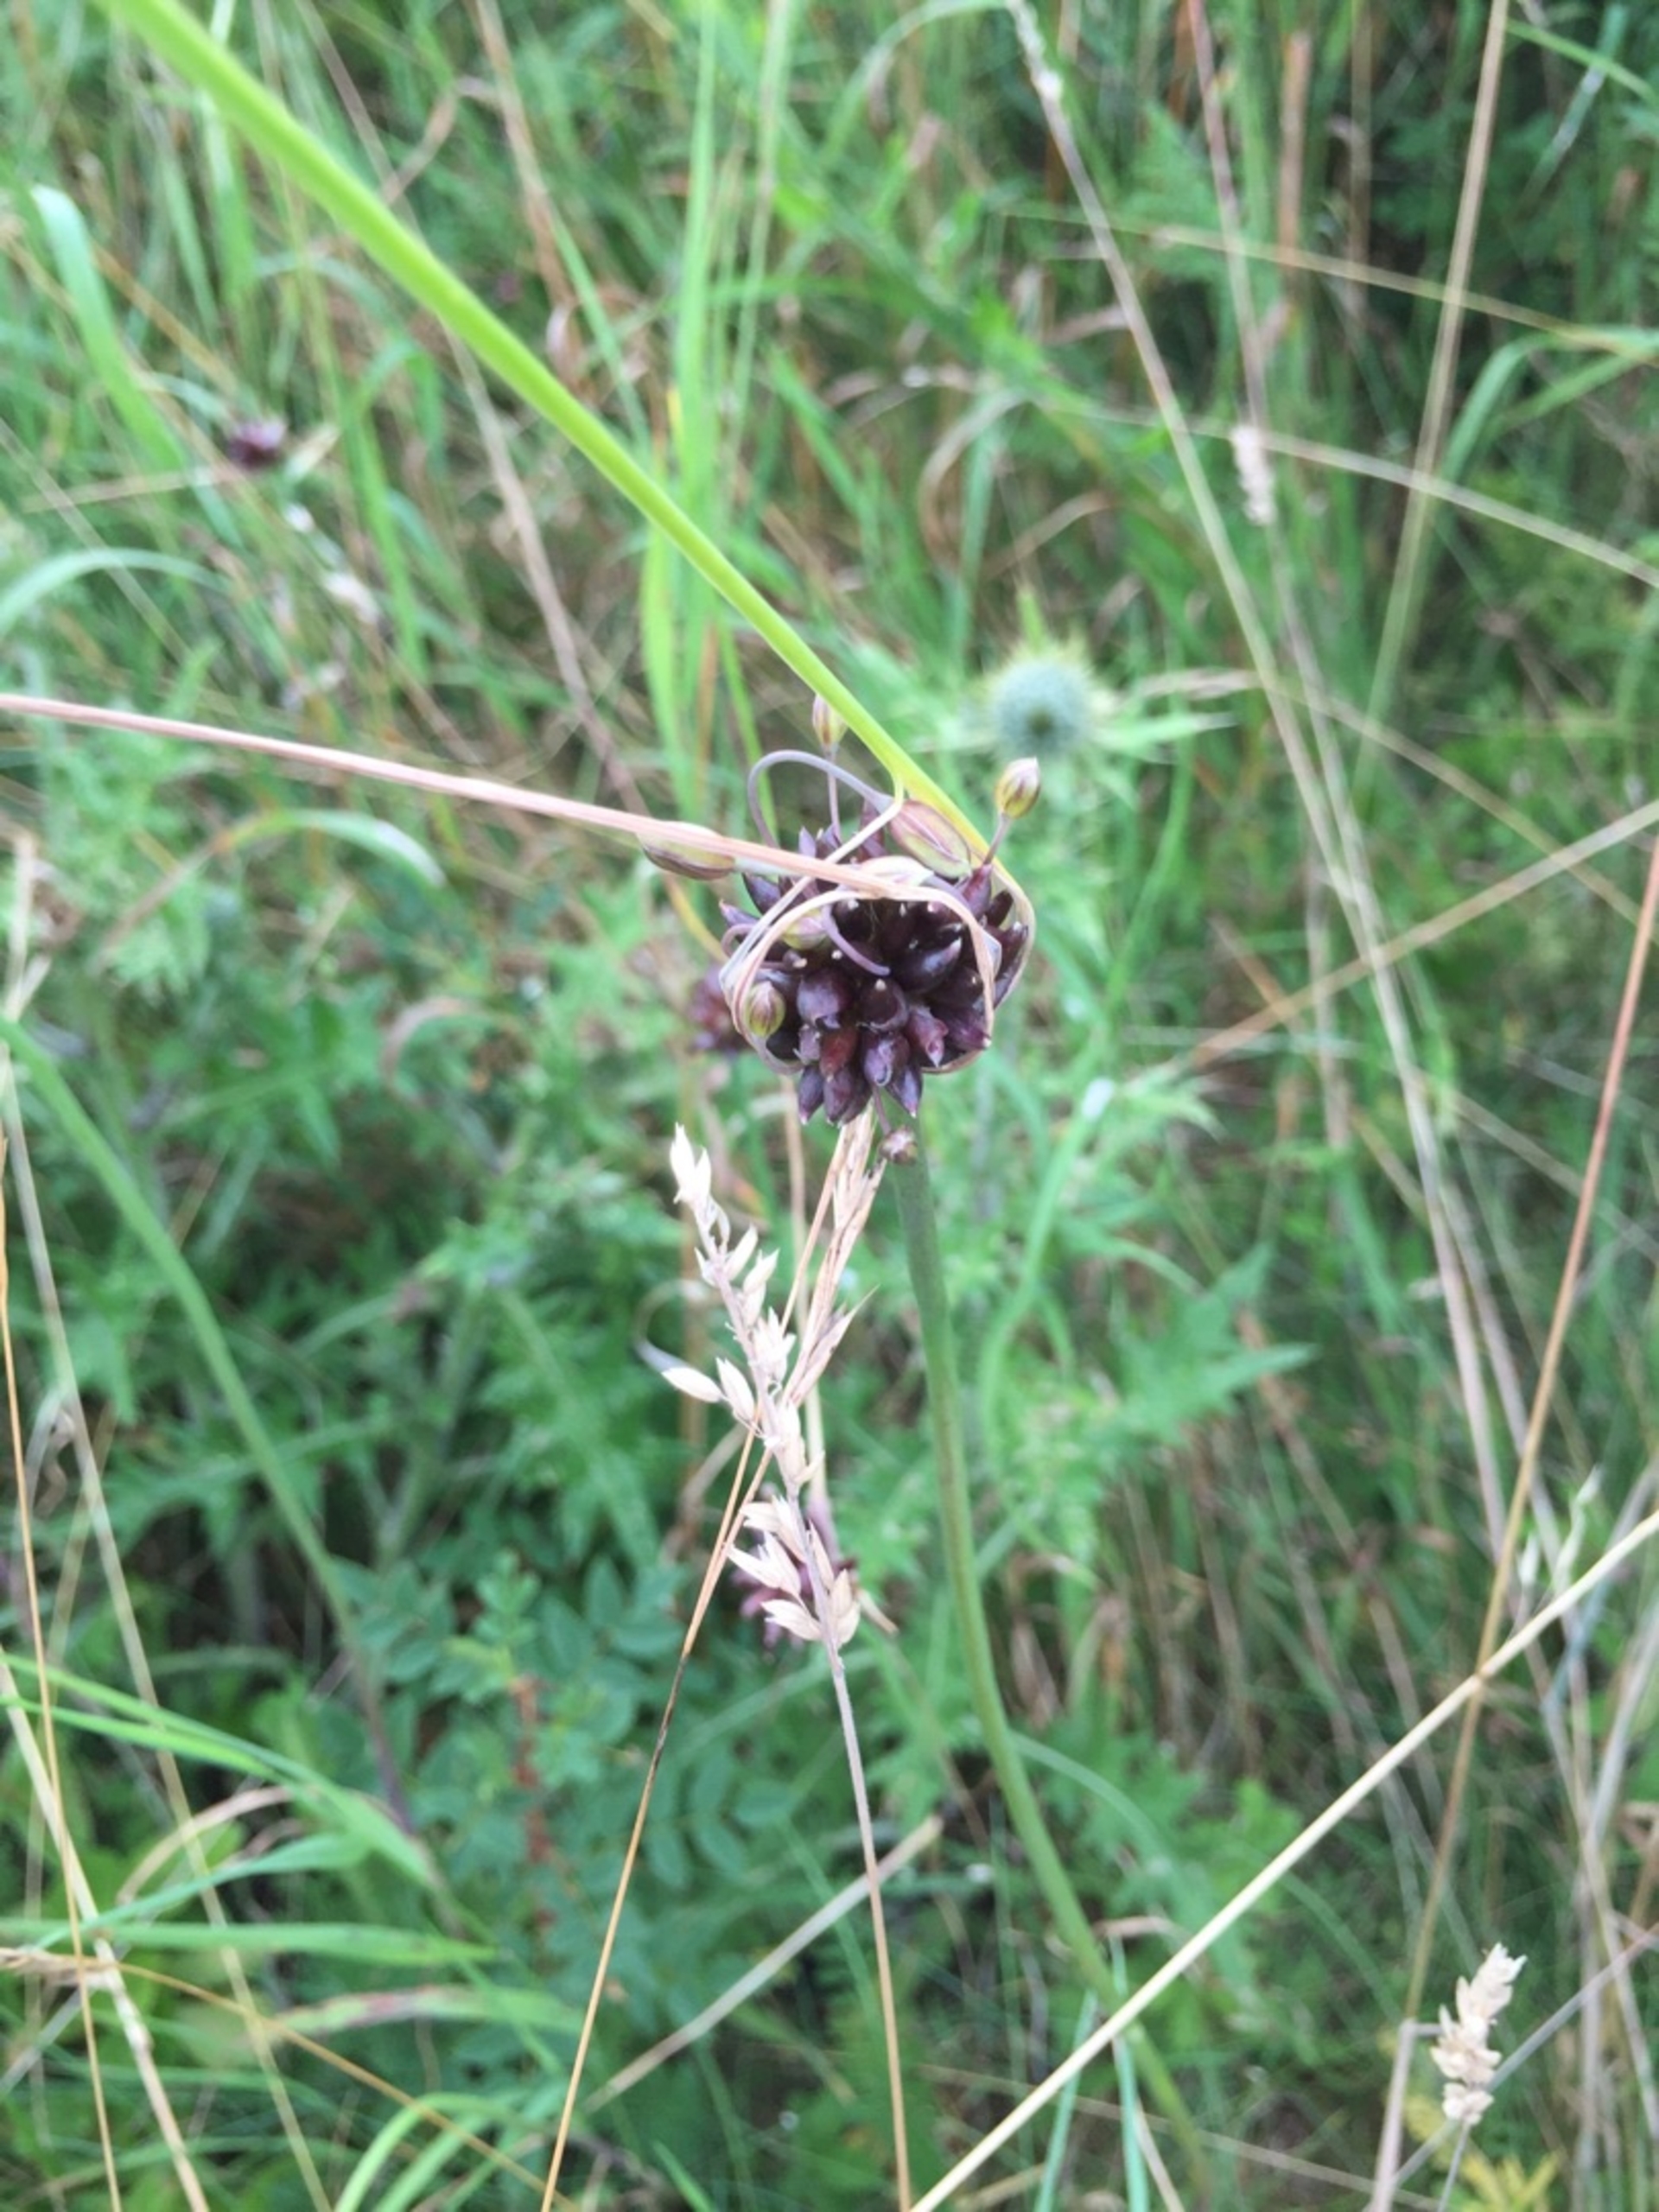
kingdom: Plantae
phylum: Tracheophyta
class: Liliopsida
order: Asparagales
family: Amaryllidaceae
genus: Allium
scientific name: Allium scorodoprasum
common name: Skov-løg
